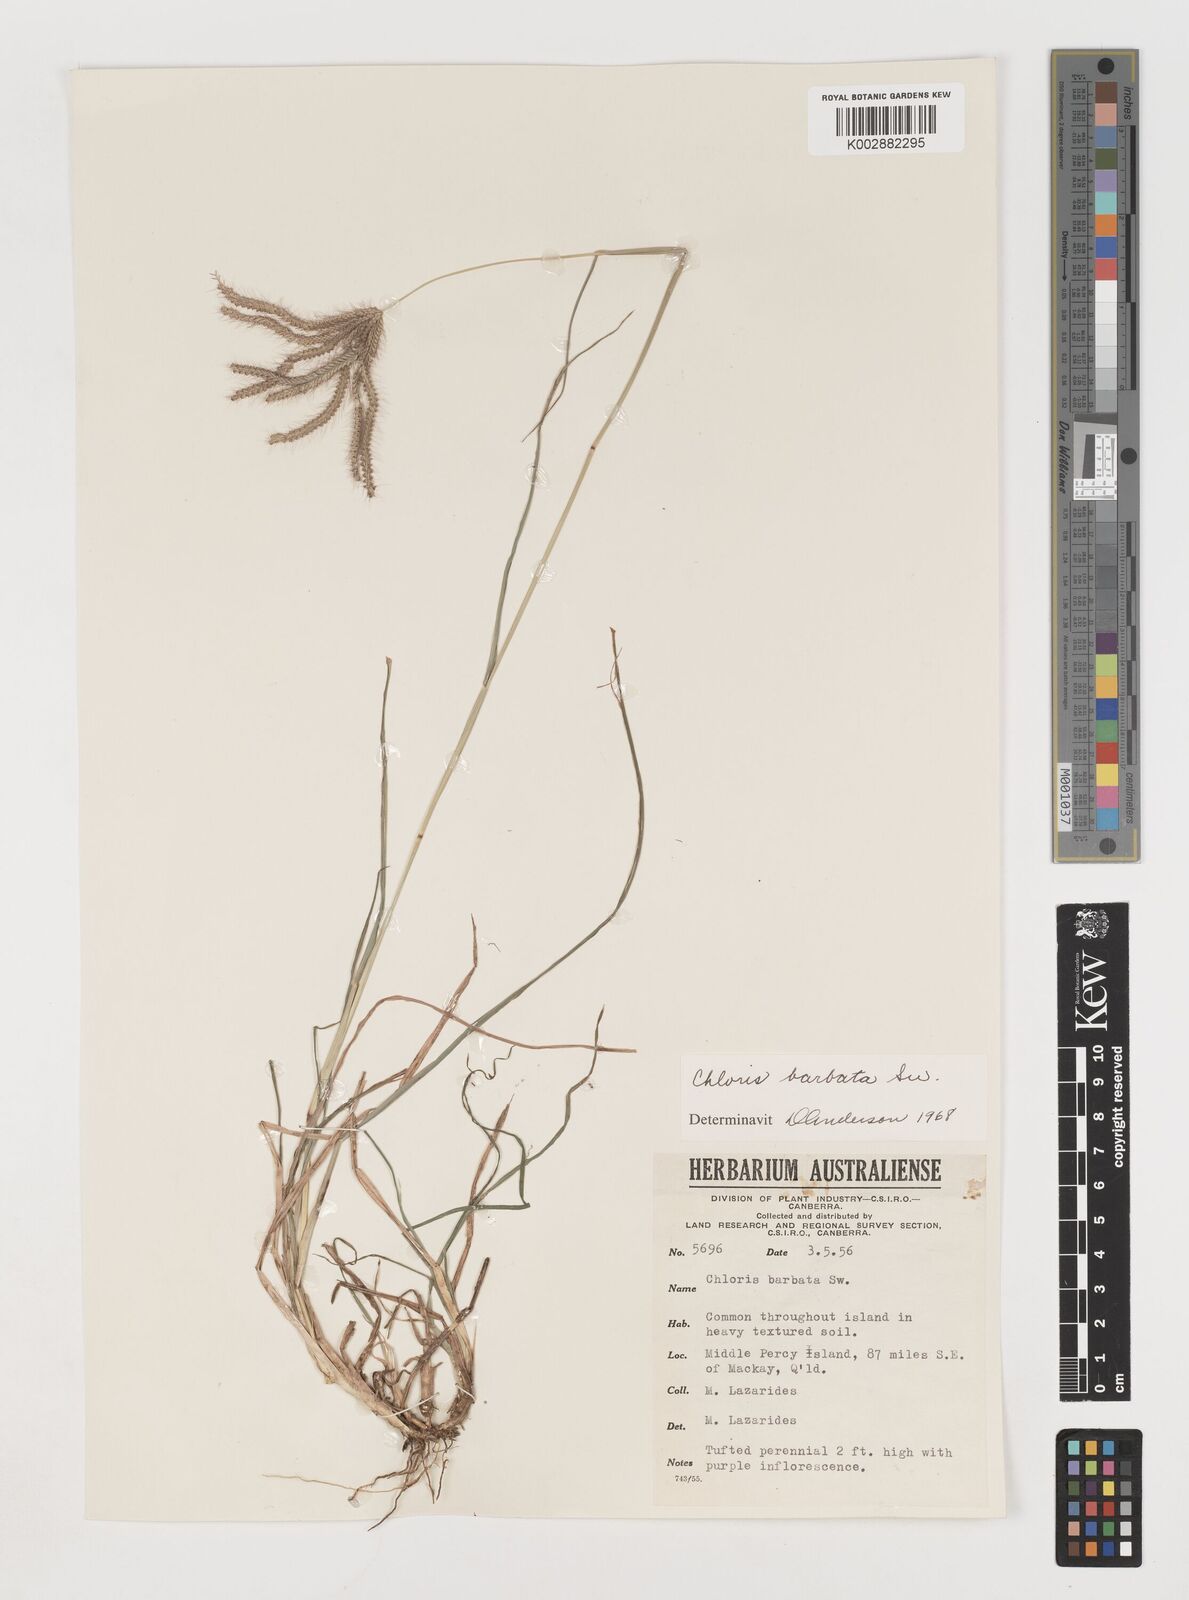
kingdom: Plantae
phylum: Tracheophyta
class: Liliopsida
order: Poales
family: Poaceae
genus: Chloris
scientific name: Chloris barbata
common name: Swollen fingergrass
